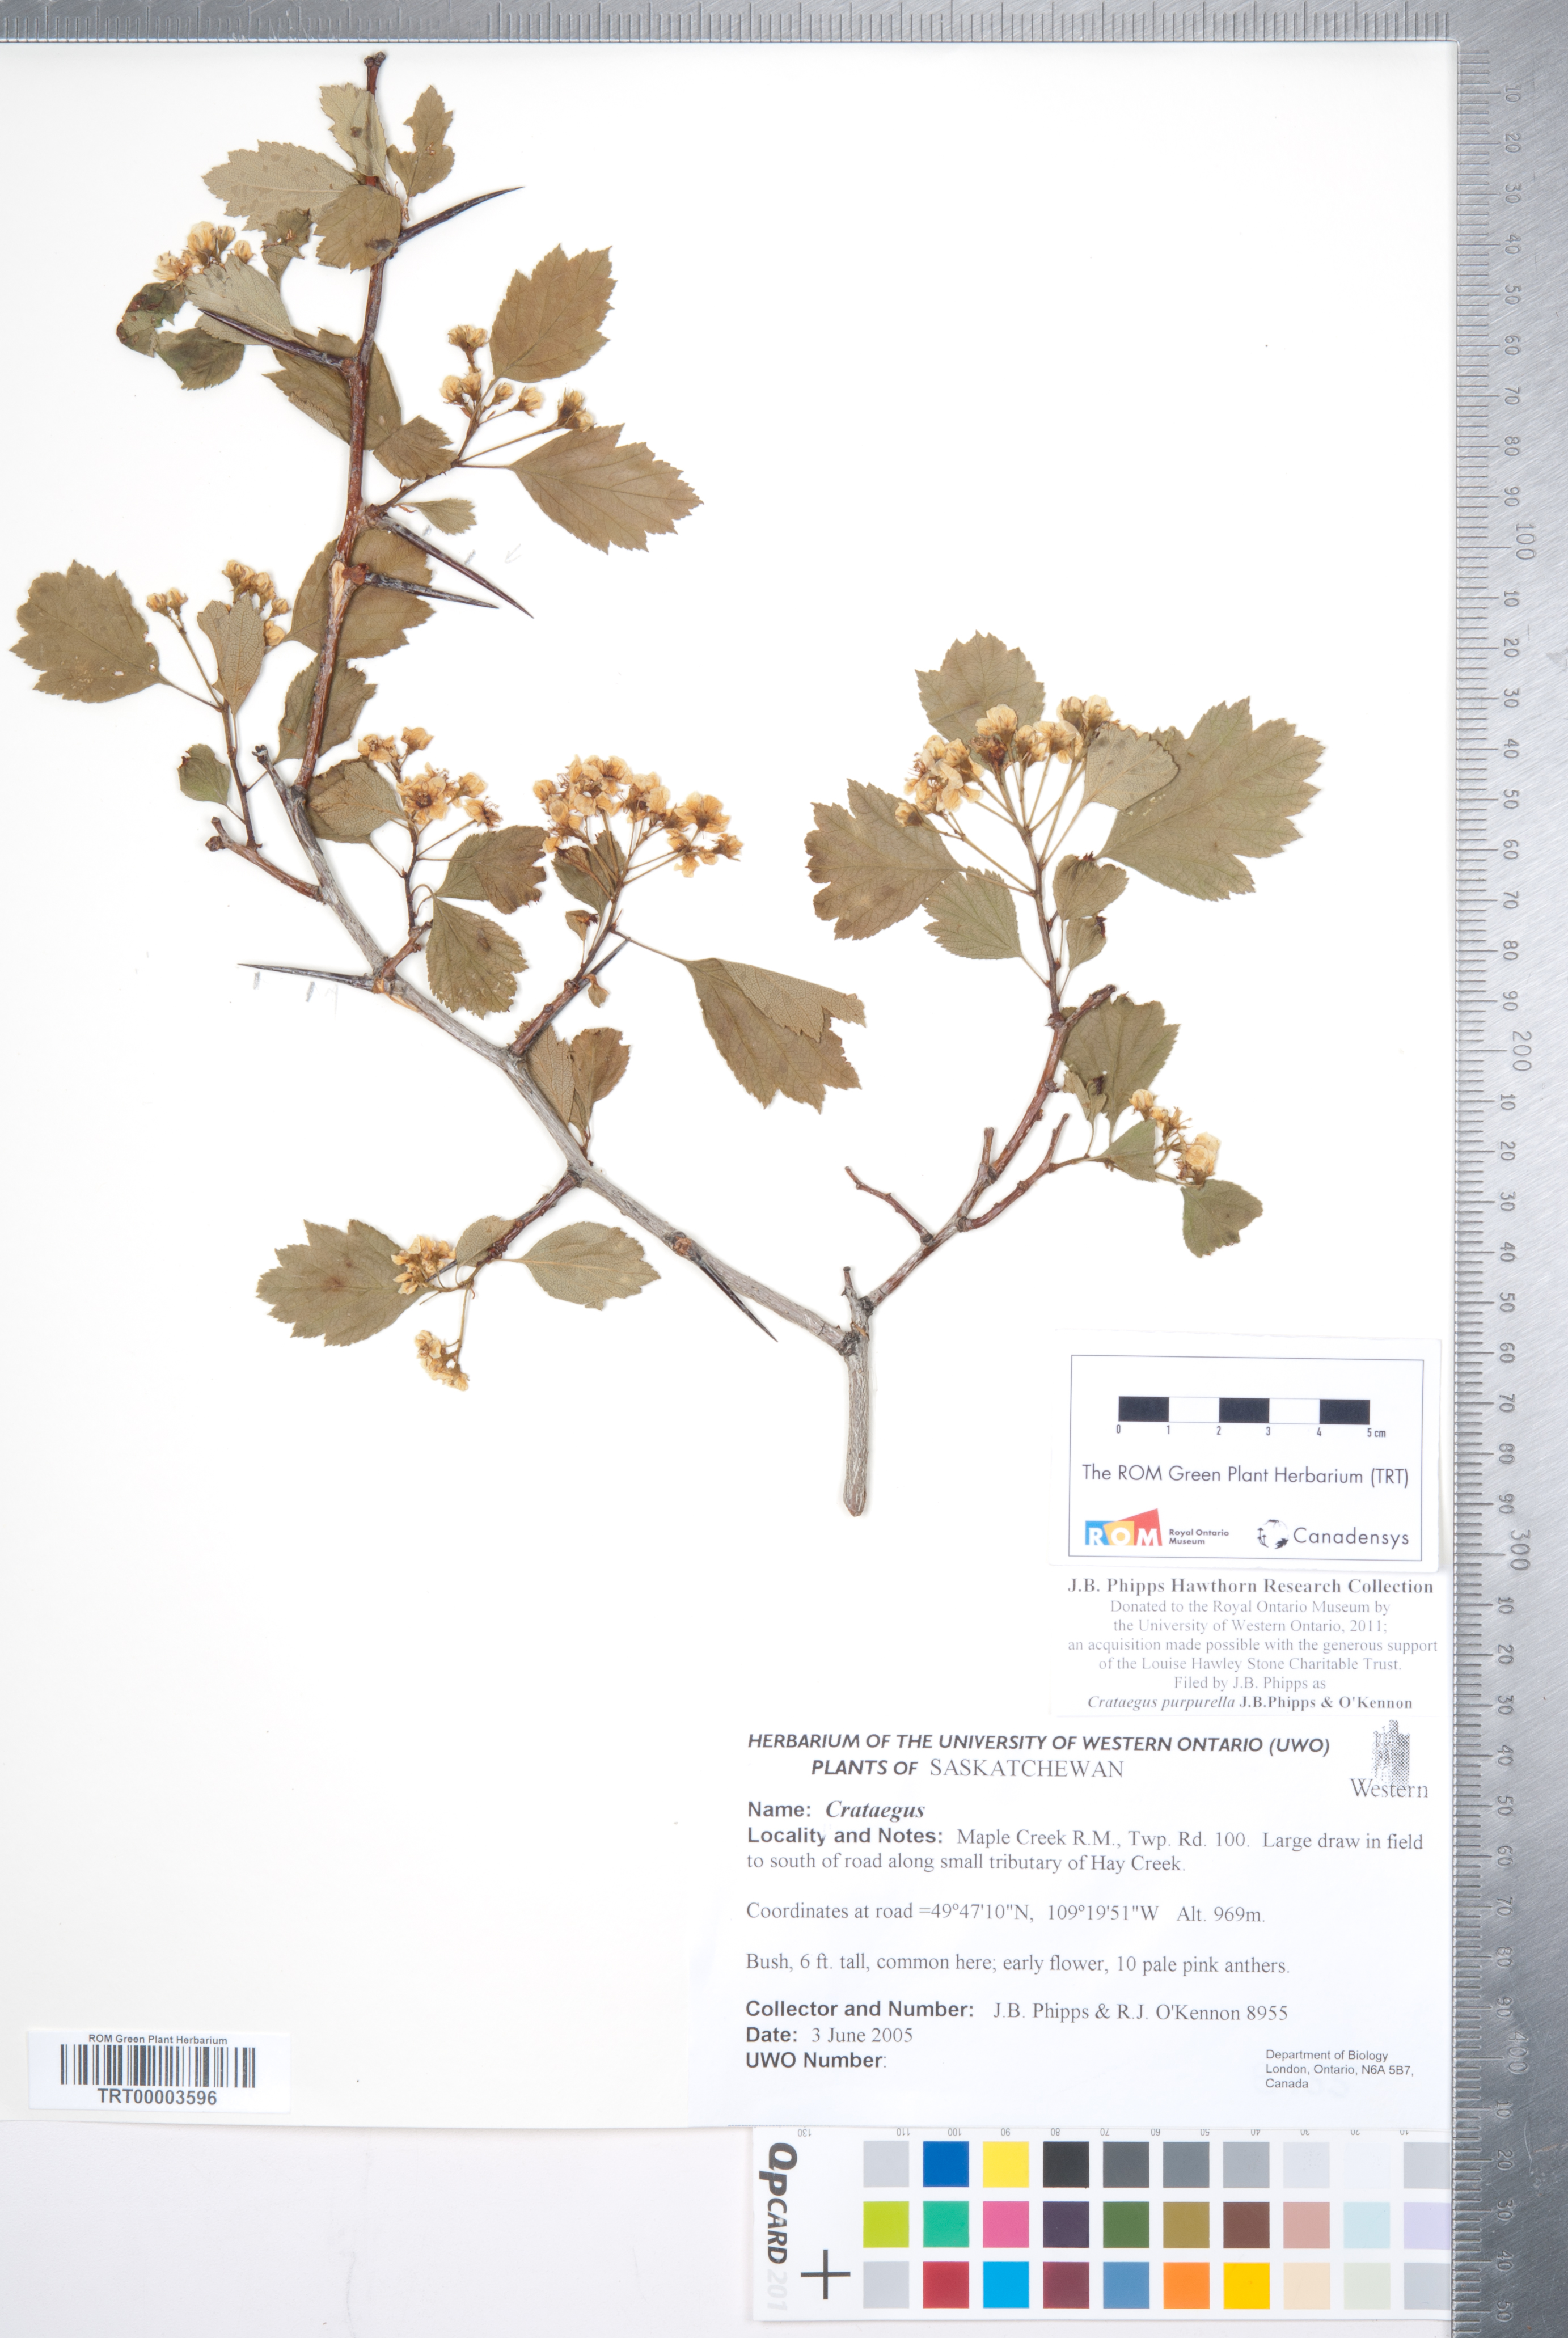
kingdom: Plantae
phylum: Tracheophyta
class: Magnoliopsida
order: Rosales
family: Rosaceae
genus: Crataegus
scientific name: Crataegus purpurella
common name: Loch lomond hawthorn
